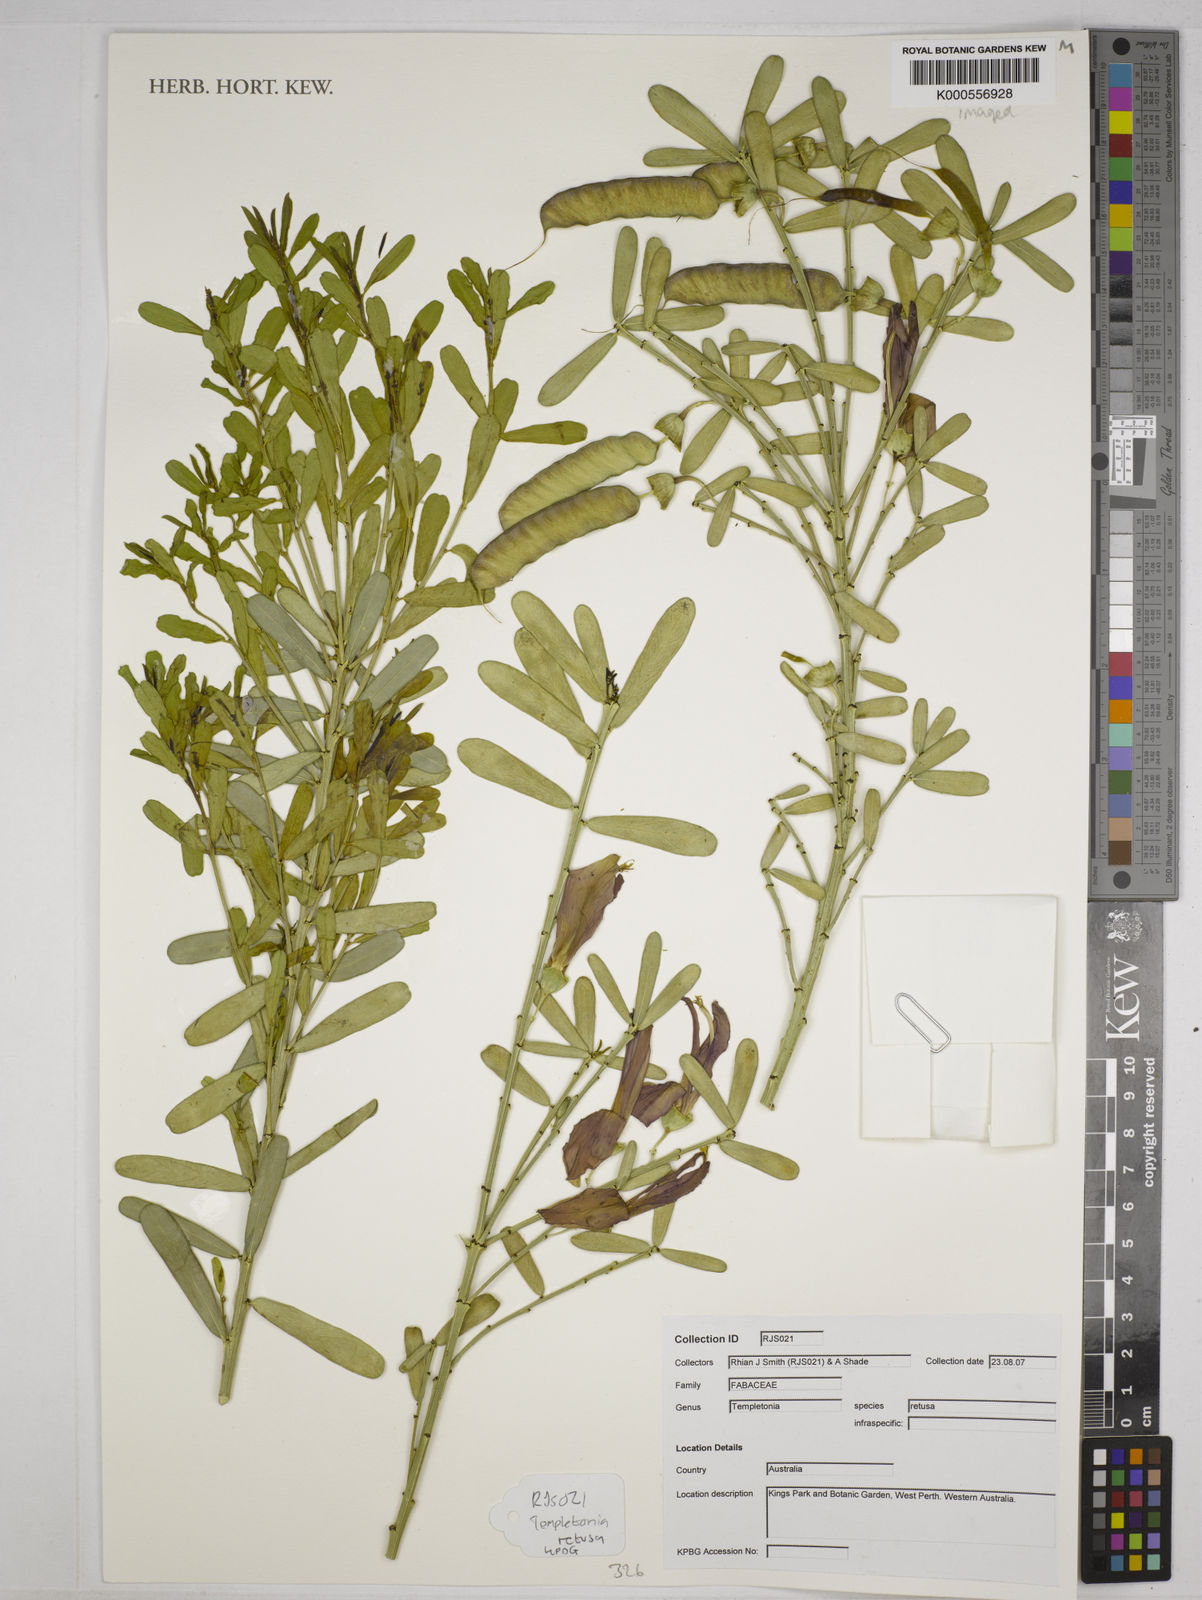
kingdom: Plantae
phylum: Tracheophyta
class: Magnoliopsida
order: Fabales
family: Fabaceae
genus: Templetonia
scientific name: Templetonia retusa
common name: Cockies'-tongue
